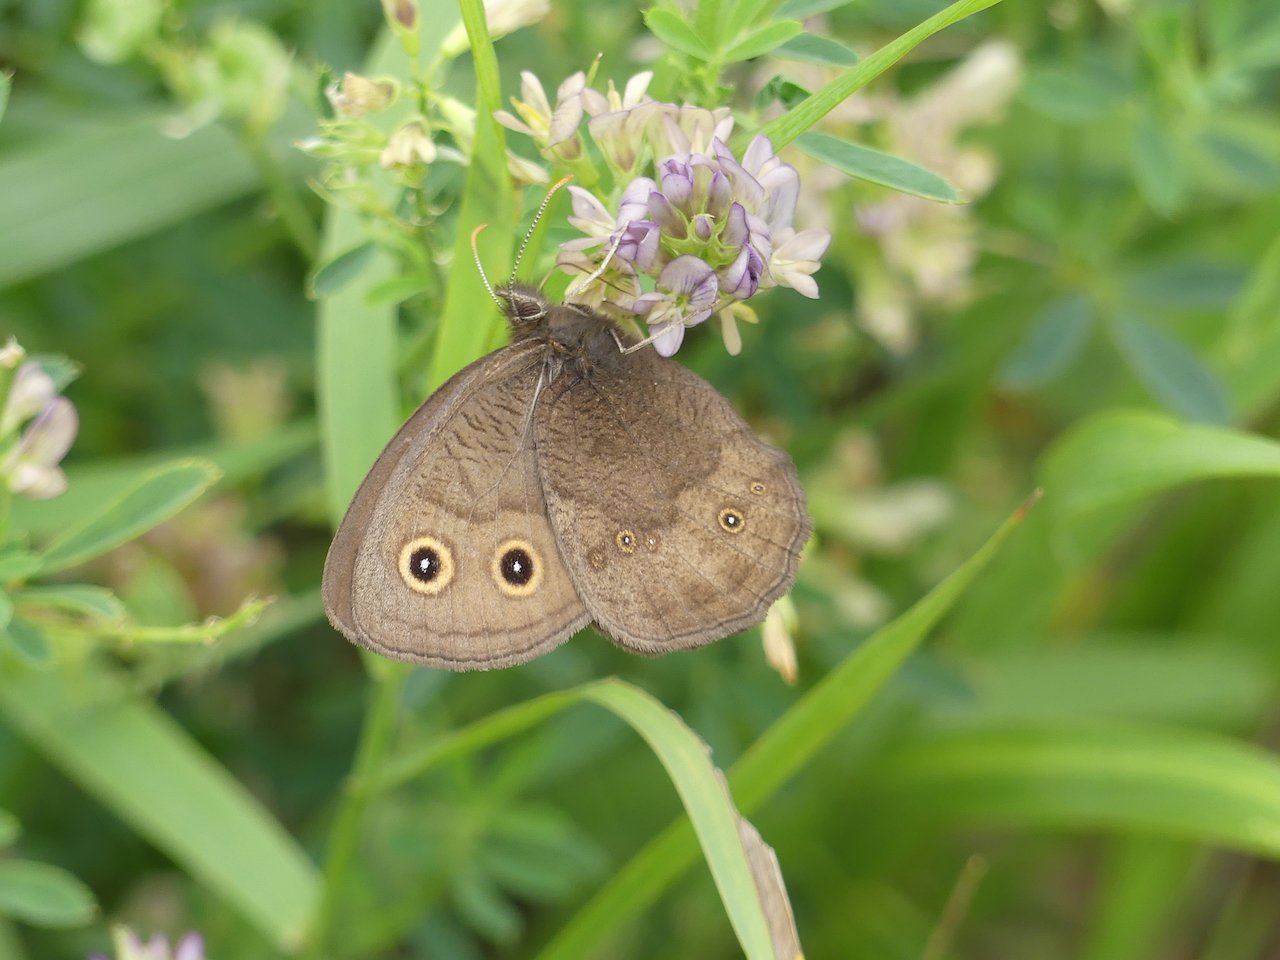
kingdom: Animalia
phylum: Arthropoda
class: Insecta
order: Lepidoptera
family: Nymphalidae
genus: Cercyonis
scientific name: Cercyonis pegala
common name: Common Wood-Nymph
